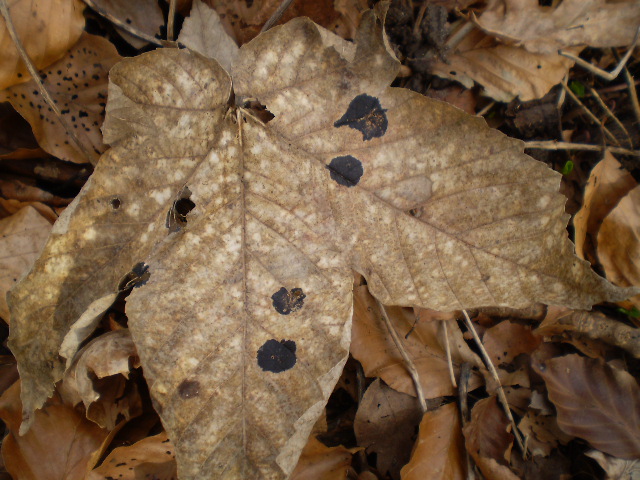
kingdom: Fungi
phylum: Ascomycota
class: Leotiomycetes
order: Rhytismatales
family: Rhytismataceae
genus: Rhytisma
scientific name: Rhytisma acerinum
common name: ahorn-rynkeplet
